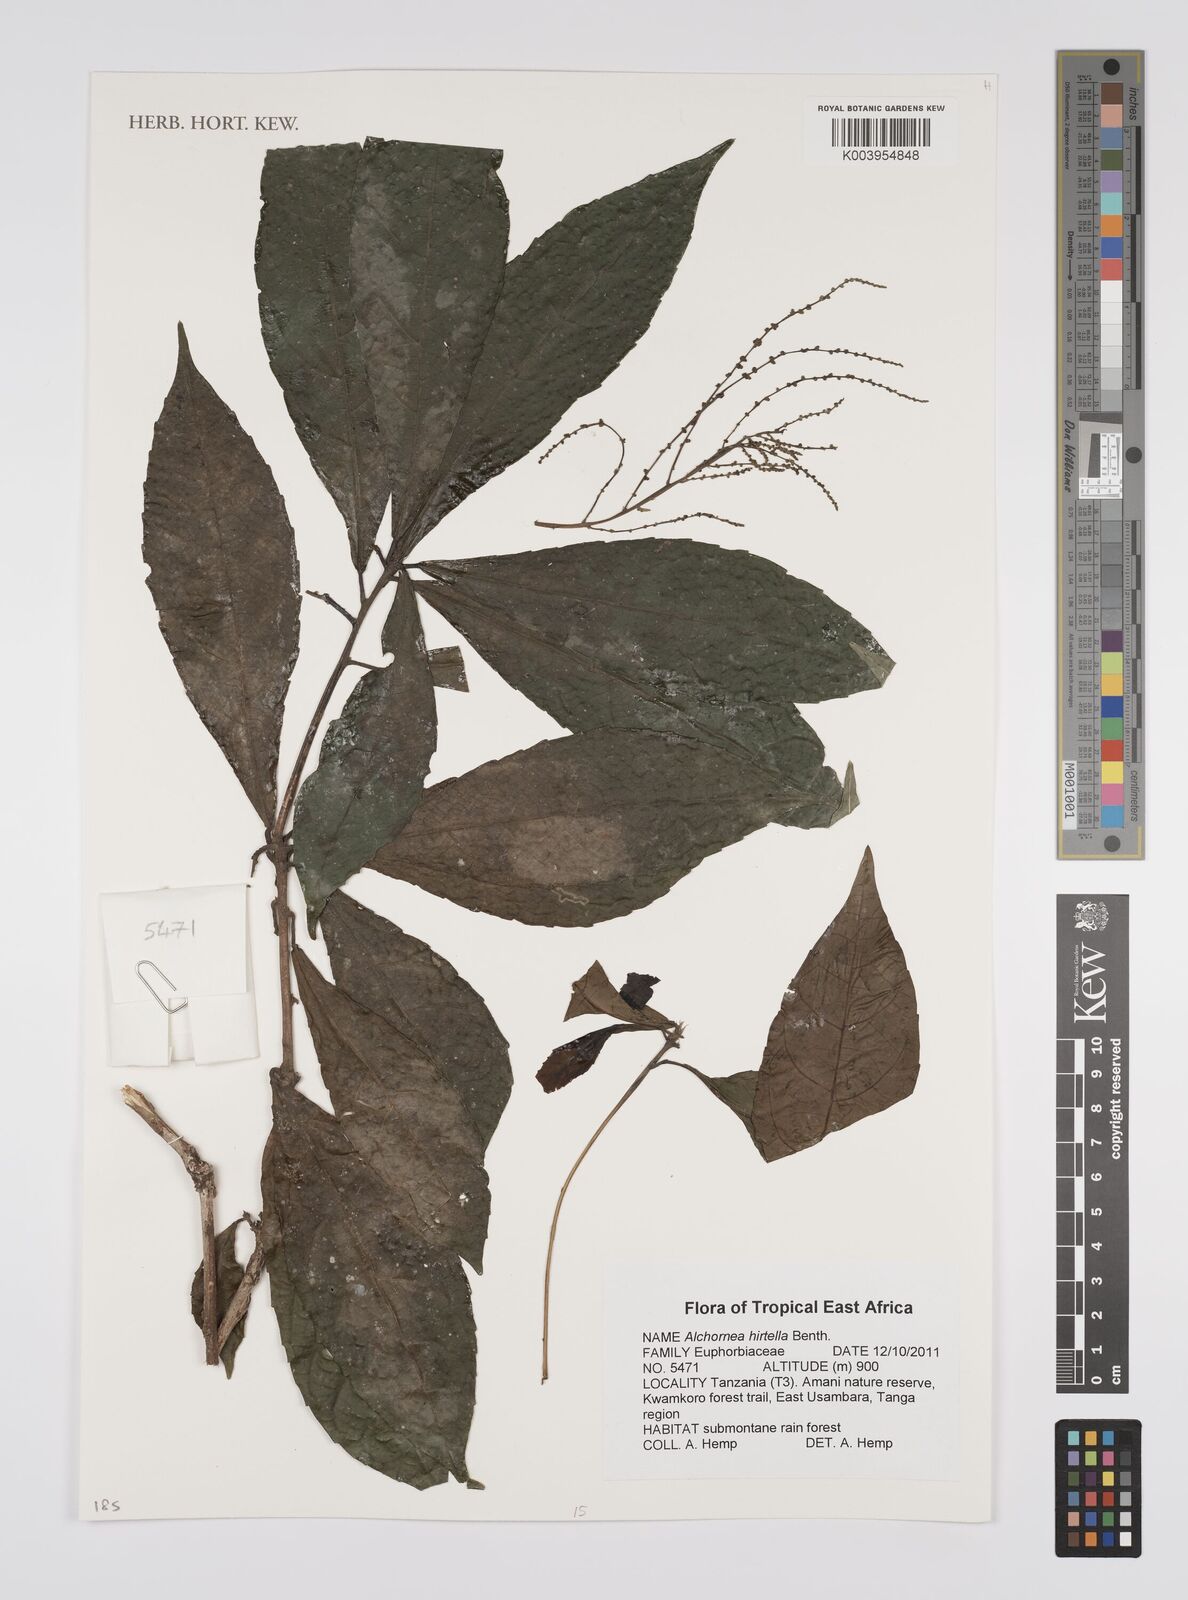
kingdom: Plantae
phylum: Tracheophyta
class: Magnoliopsida
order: Malpighiales
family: Euphorbiaceae
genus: Alchornea
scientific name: Alchornea hirtella
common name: Forest bead-string
